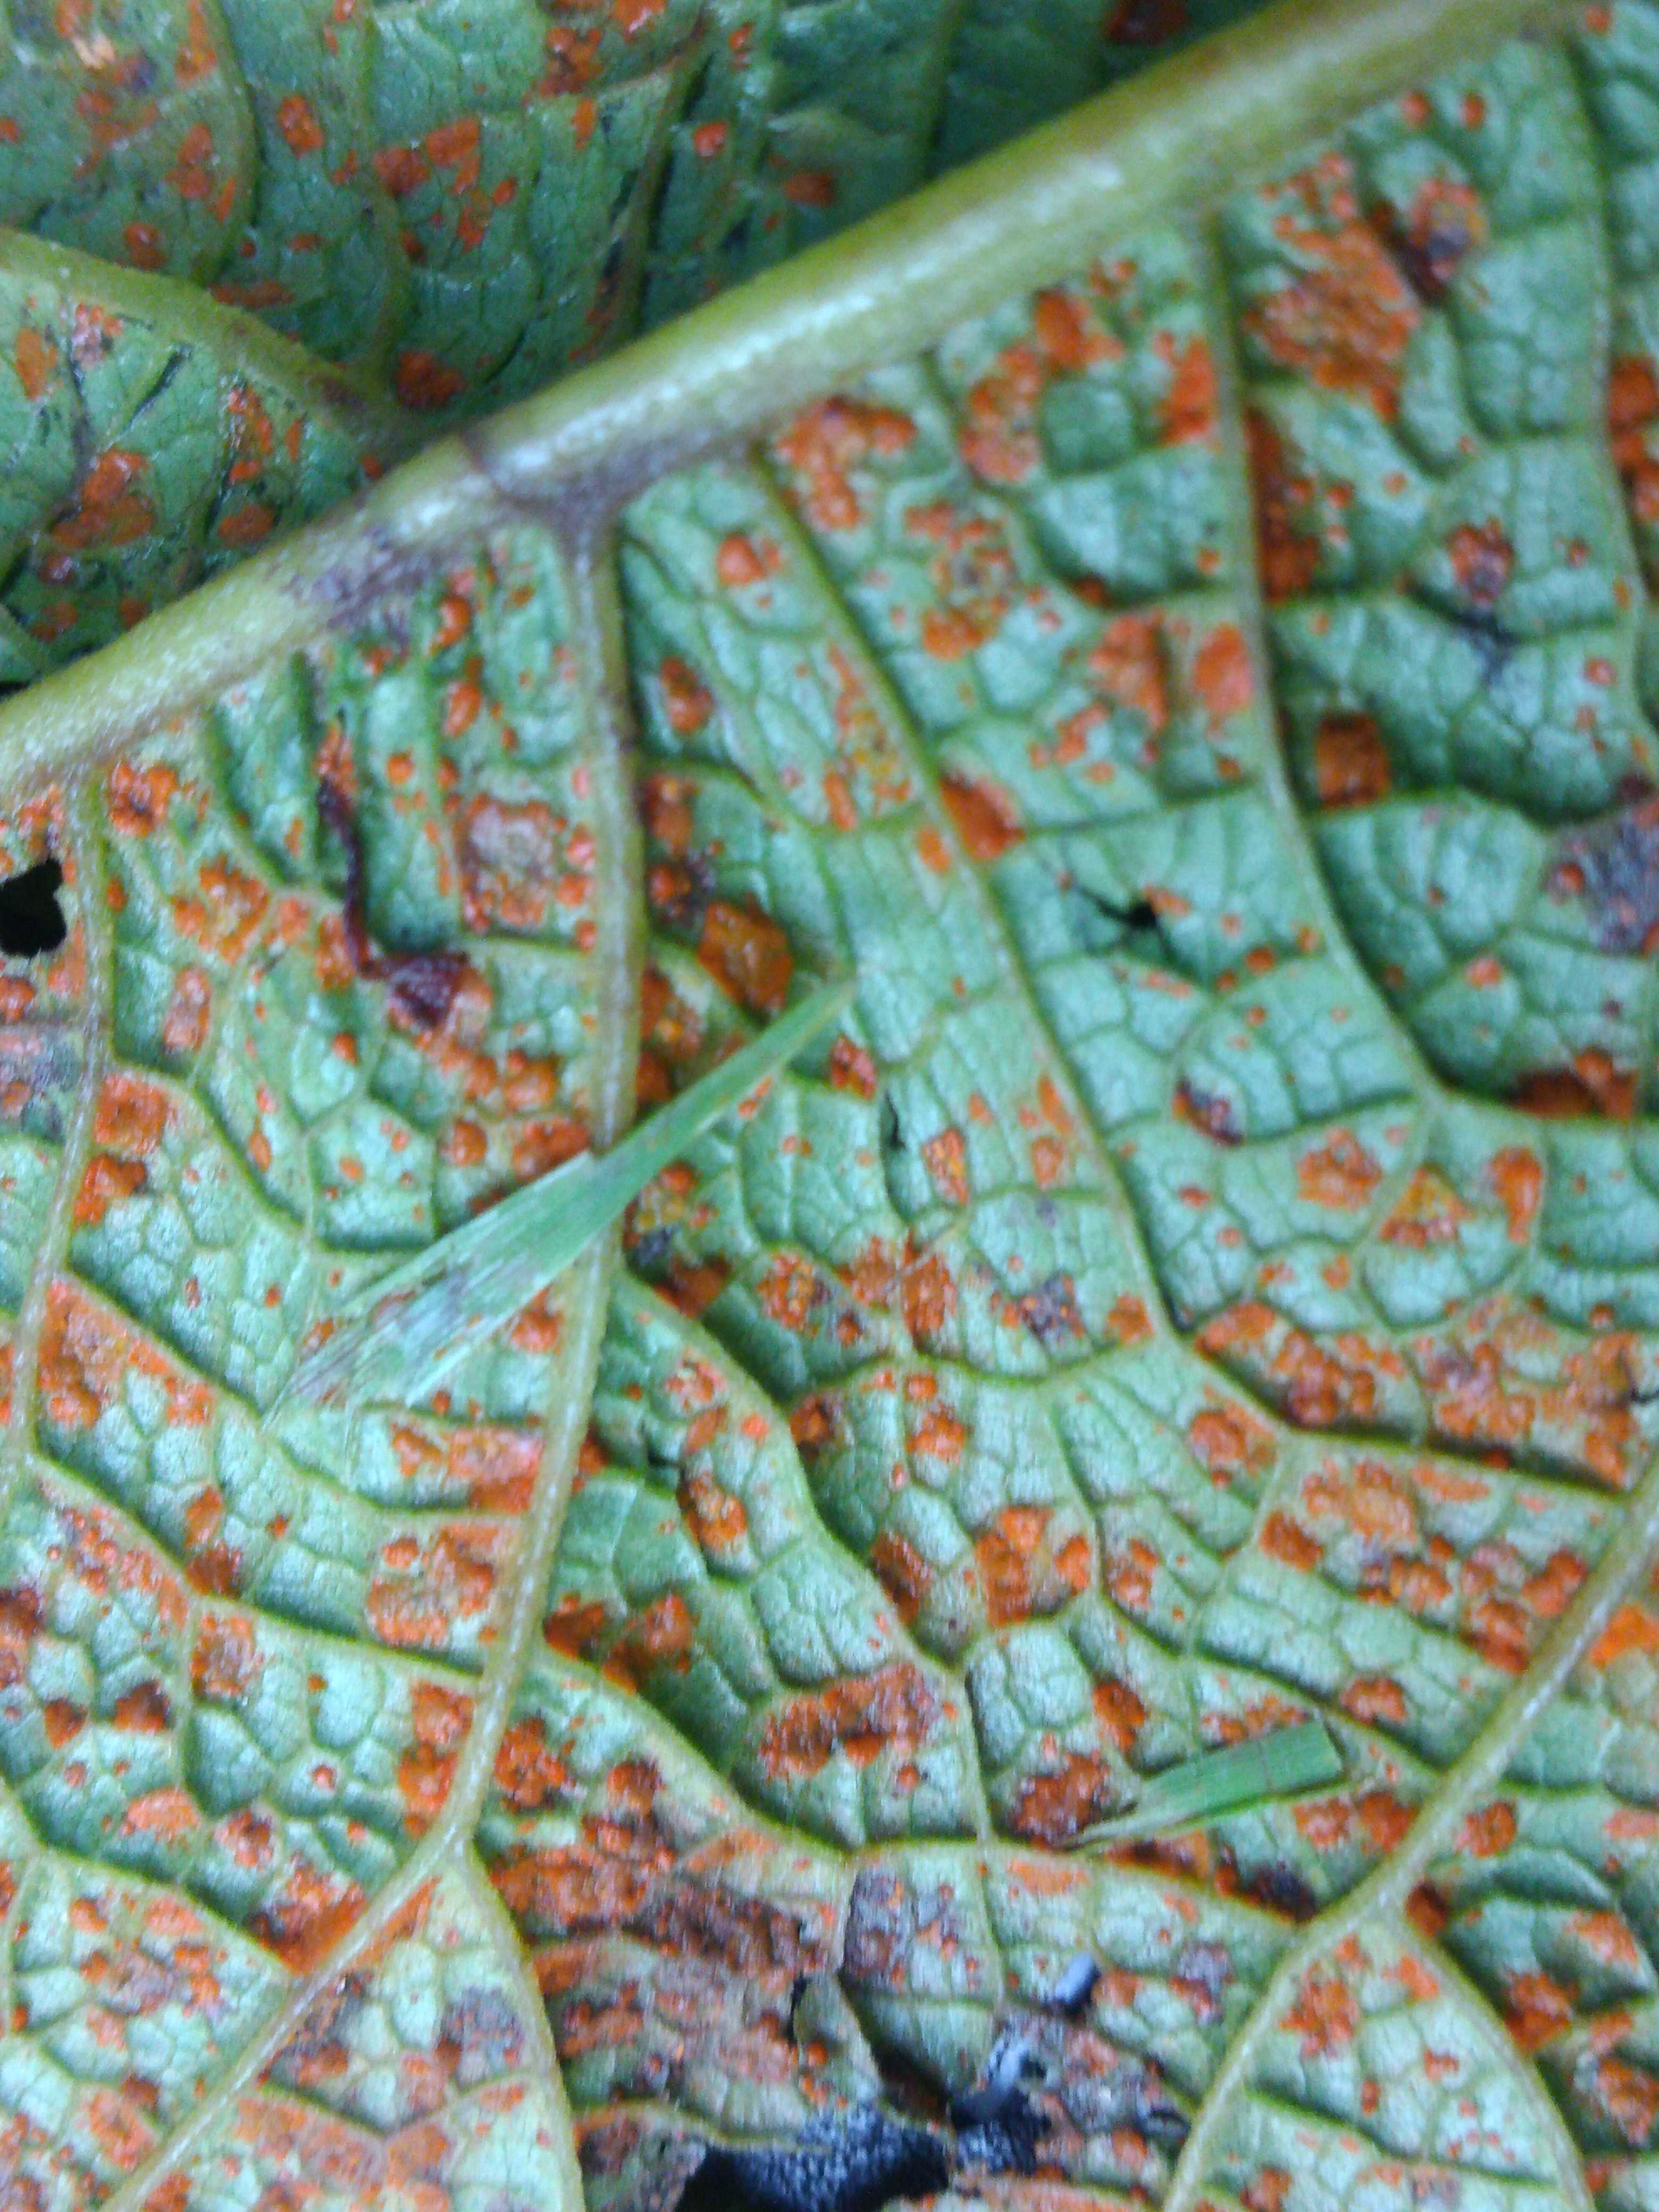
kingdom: Fungi
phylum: Basidiomycota
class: Pucciniomycetes
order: Pucciniales
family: Coleosporiaceae
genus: Coleosporium
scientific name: Coleosporium telekiae
